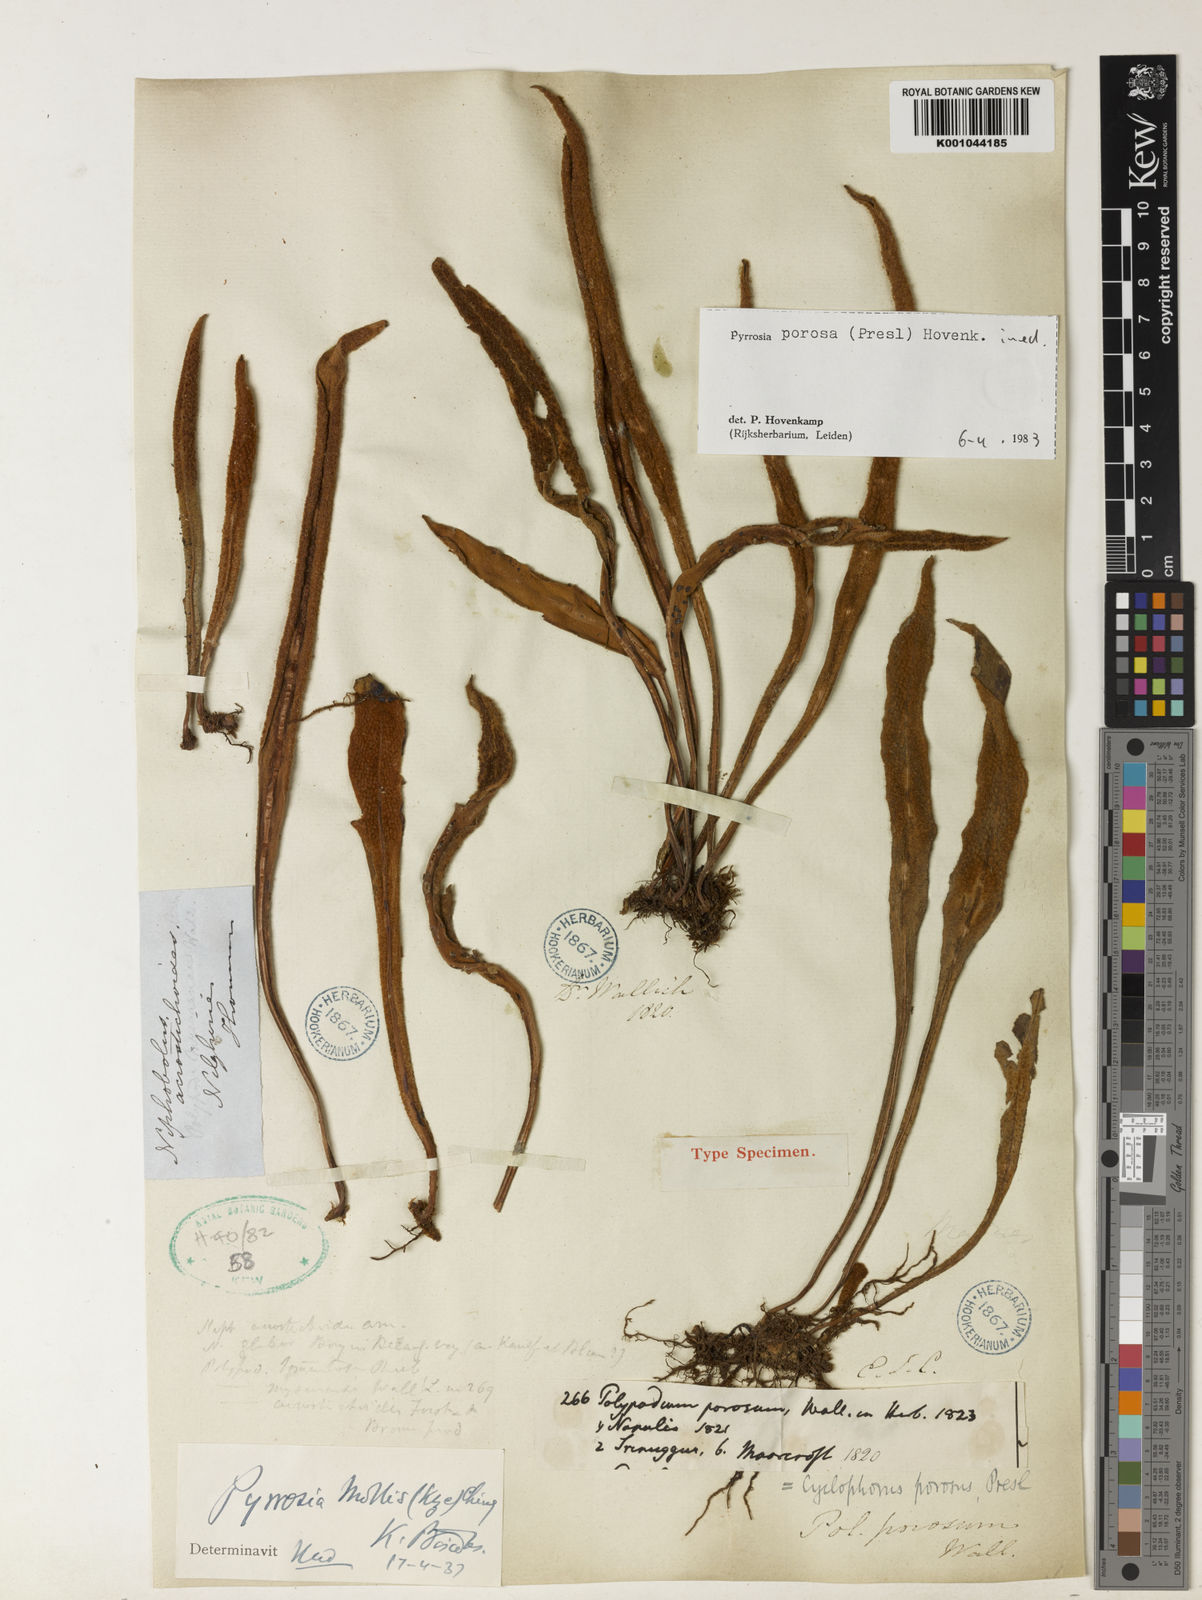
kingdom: Plantae
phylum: Tracheophyta
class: Polypodiopsida
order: Polypodiales
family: Polypodiaceae
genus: Pyrrosia
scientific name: Pyrrosia porosa
